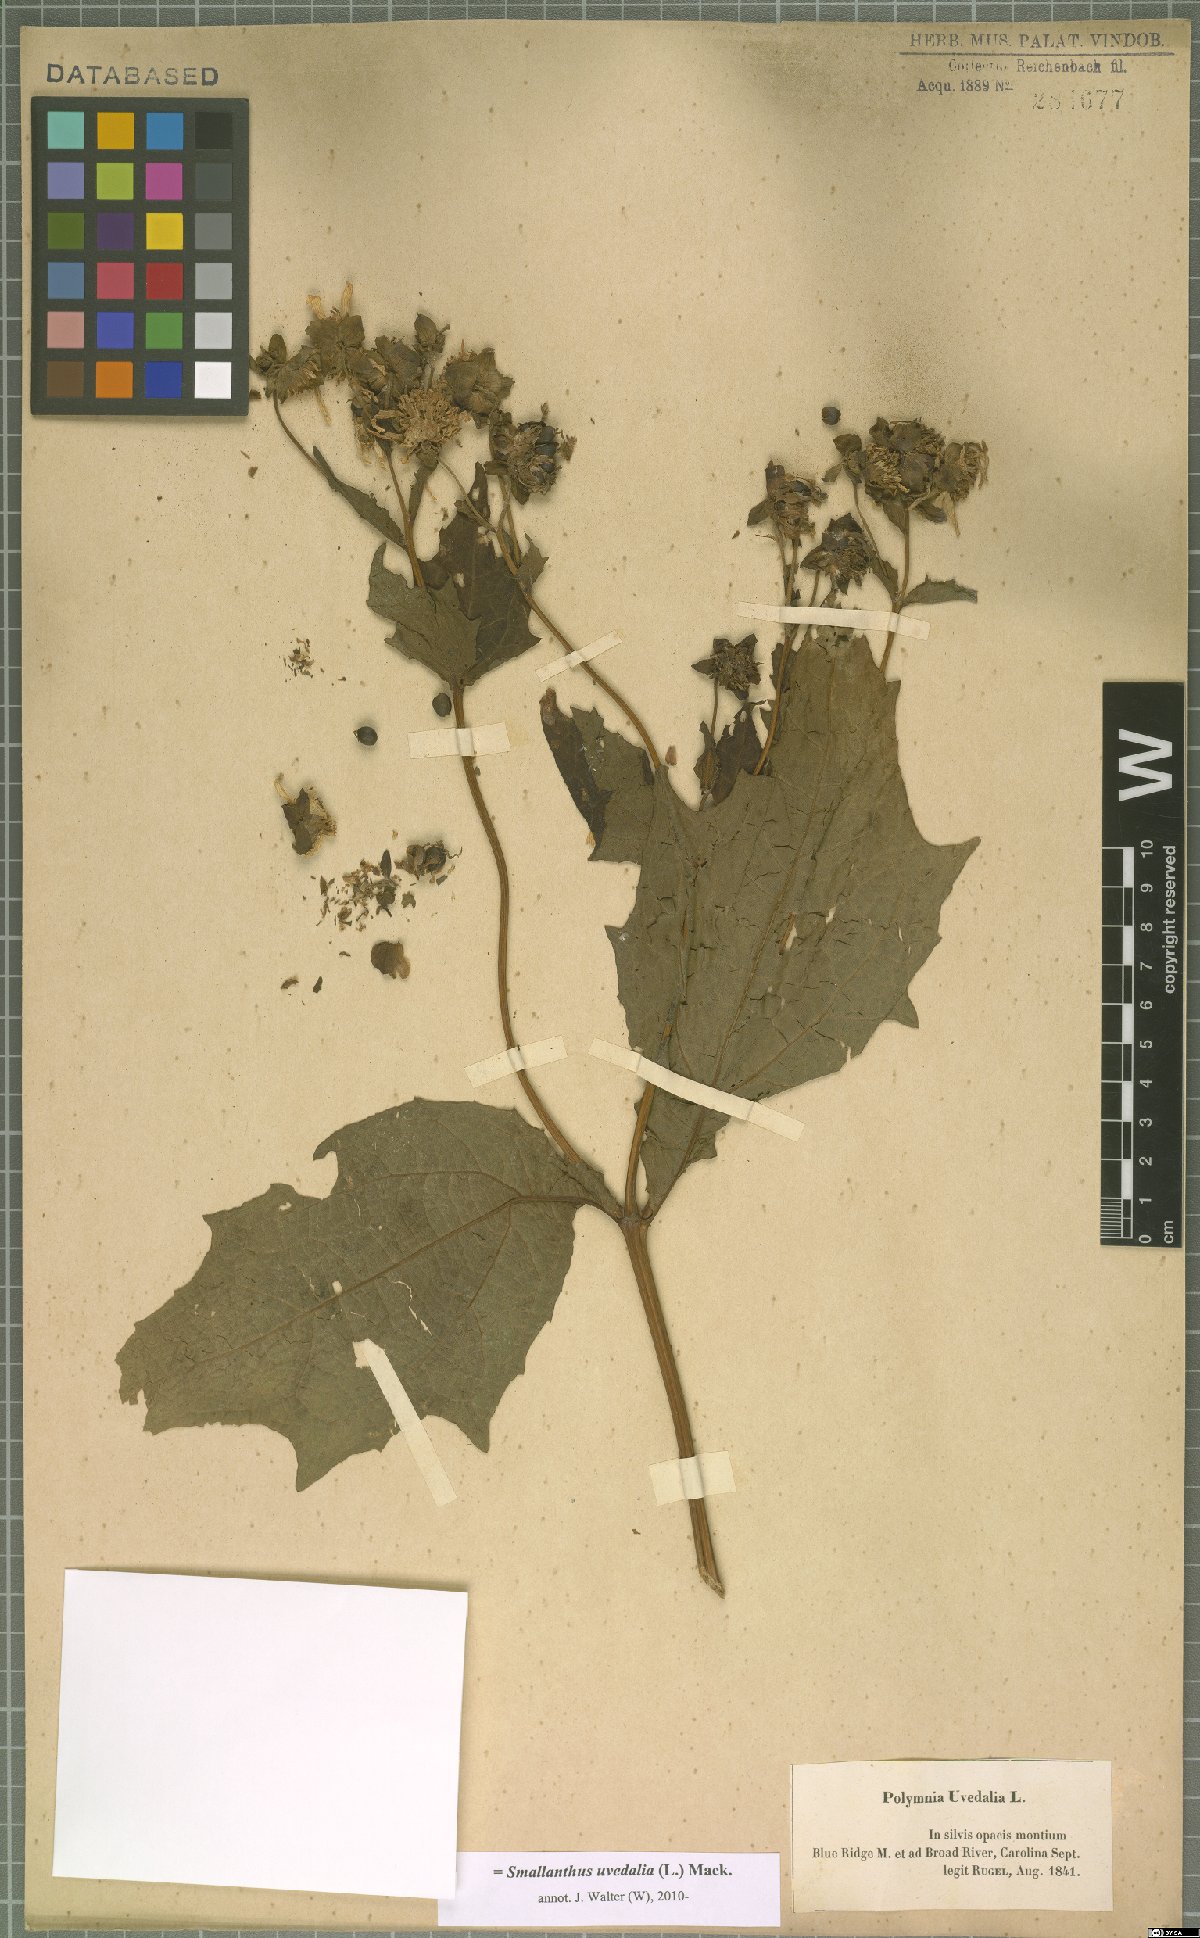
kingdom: Plantae
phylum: Tracheophyta
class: Magnoliopsida
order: Asterales
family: Asteraceae
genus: Smallanthus
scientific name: Smallanthus uvedalia
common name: Bear's-foot
